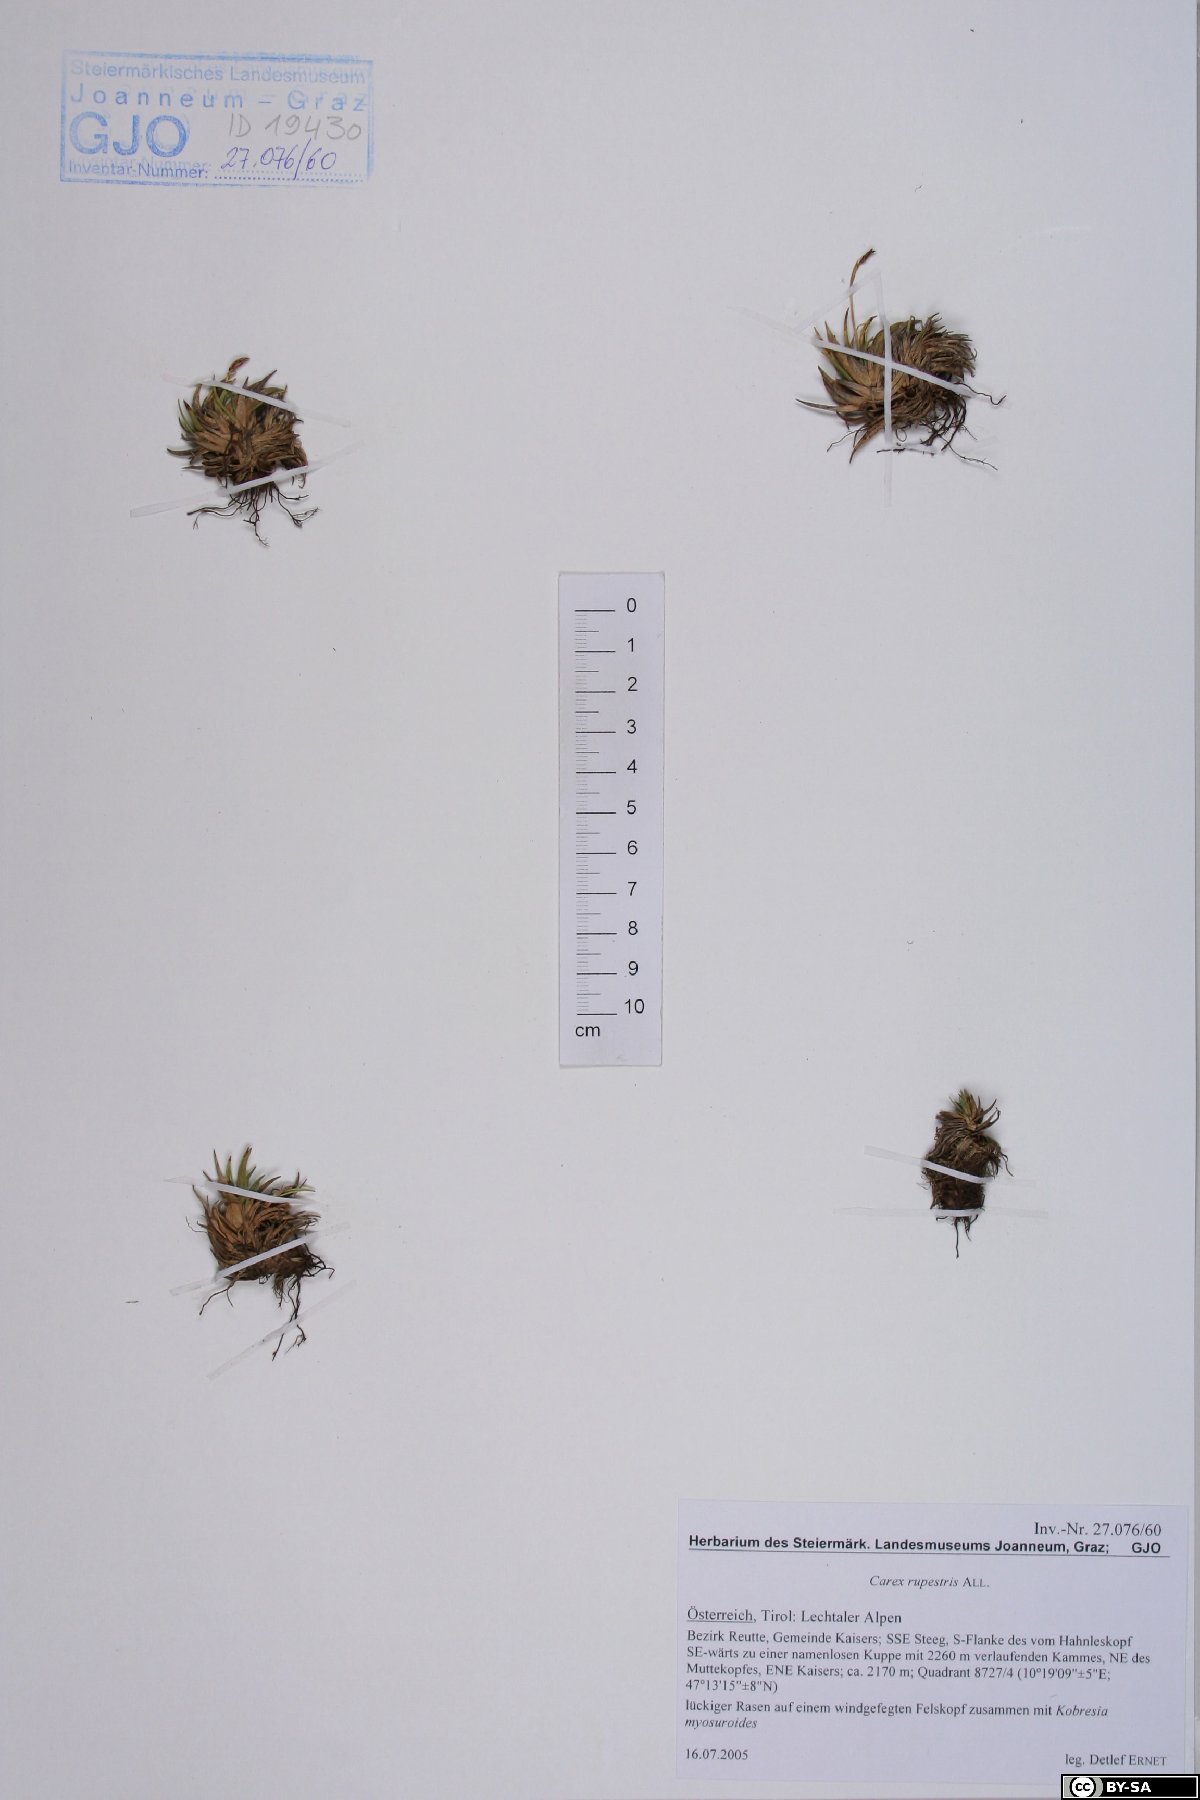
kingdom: Plantae
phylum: Tracheophyta
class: Liliopsida
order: Poales
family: Cyperaceae
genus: Carex
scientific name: Carex rupestris
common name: Rock sedge
